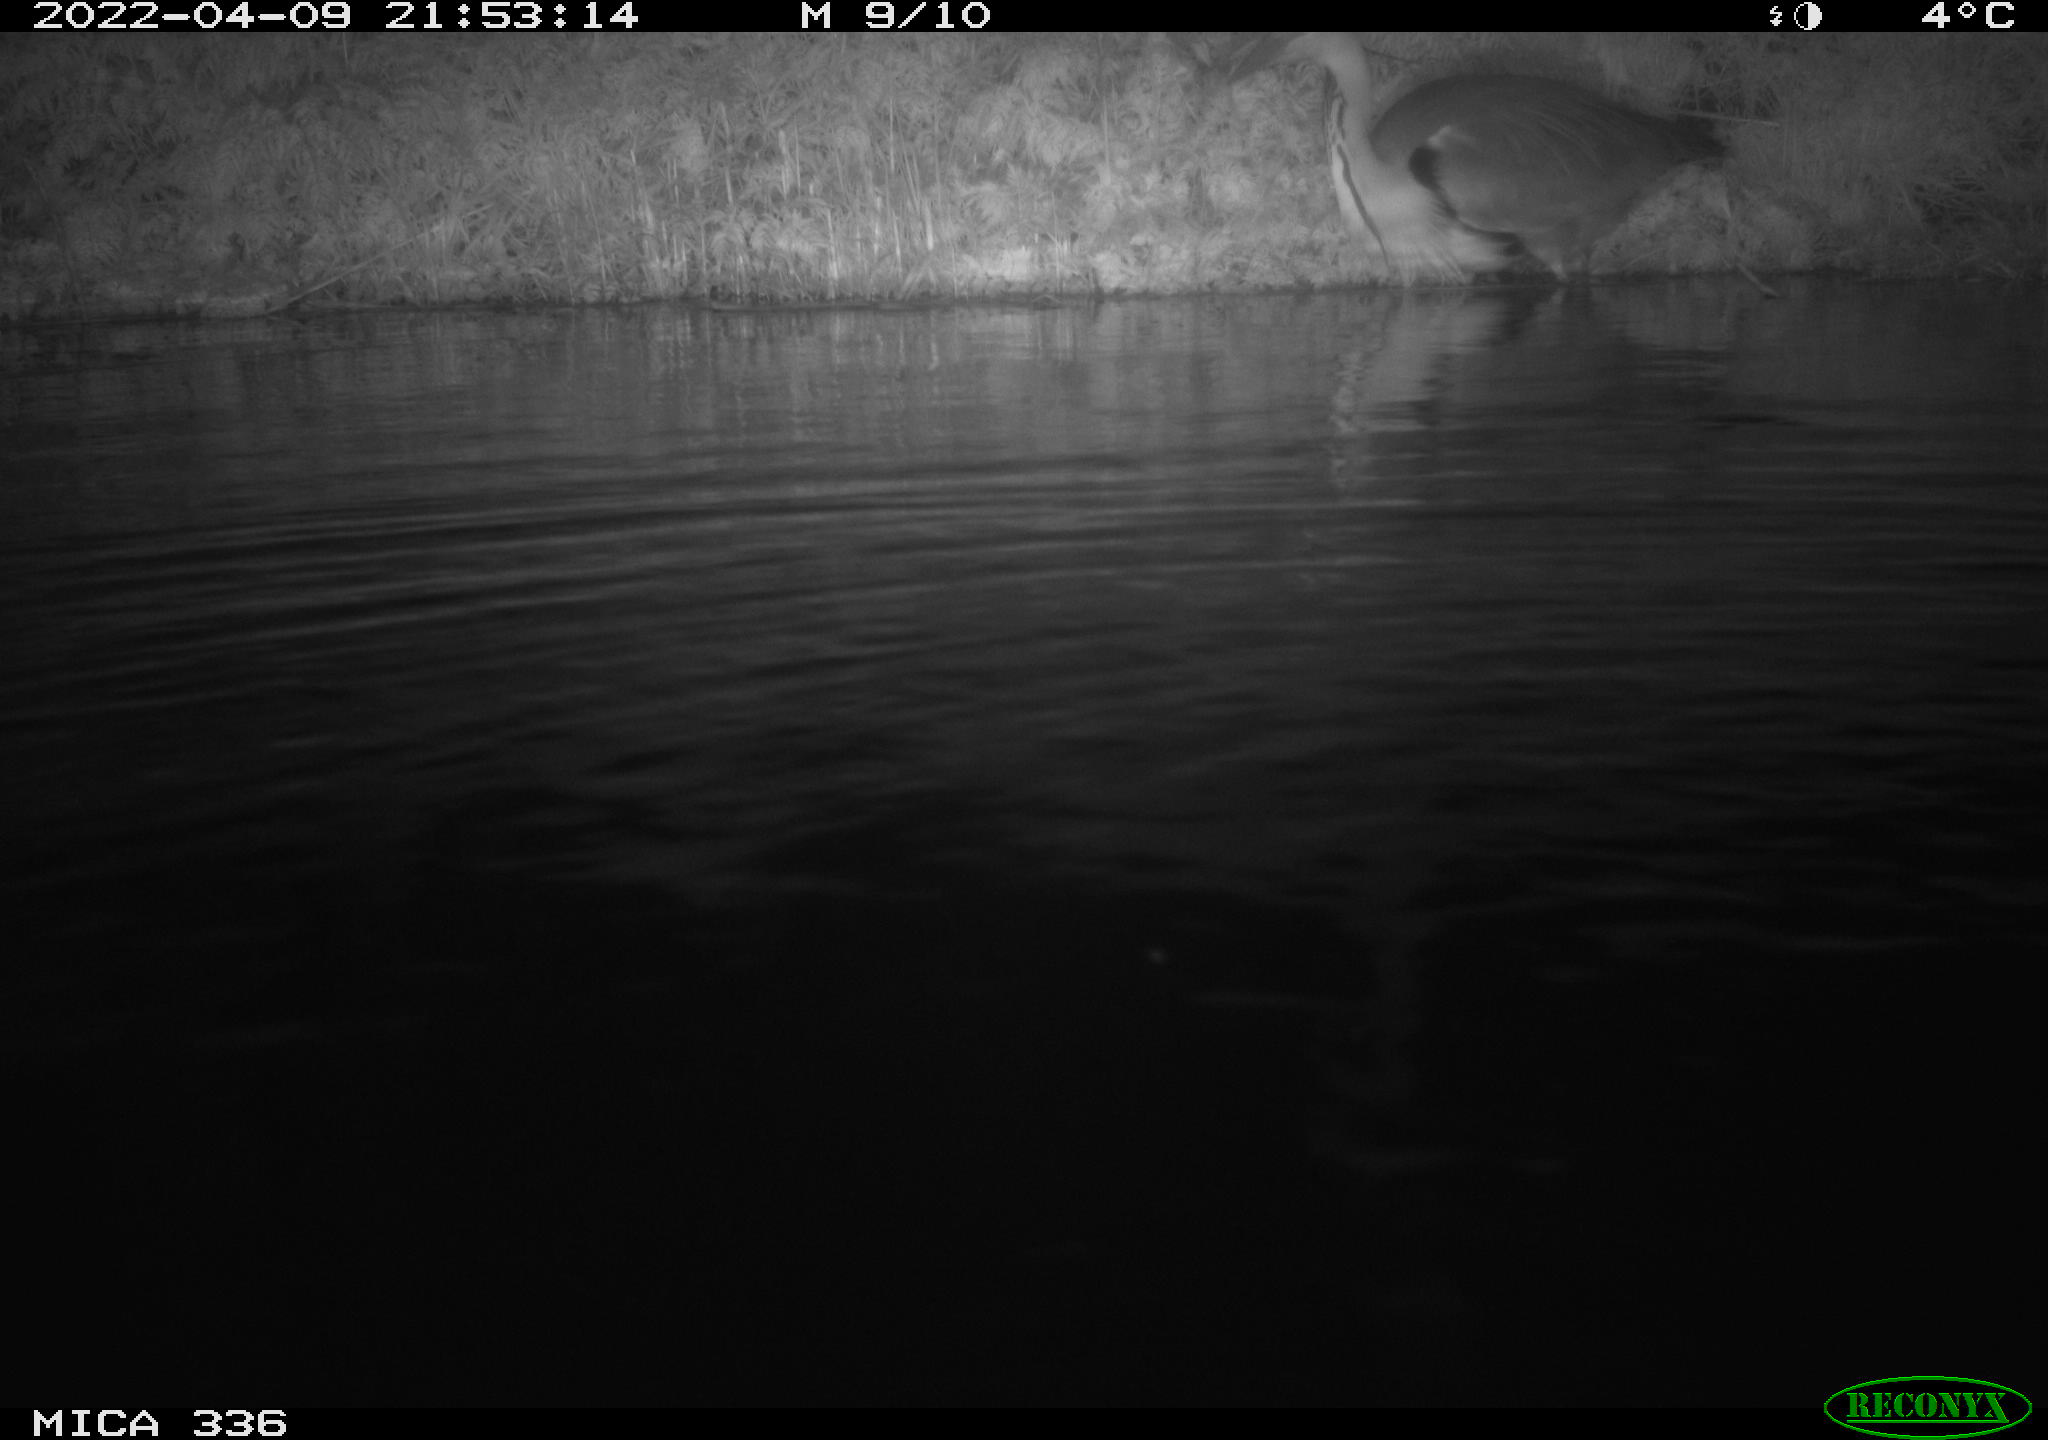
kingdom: Animalia
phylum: Chordata
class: Aves
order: Pelecaniformes
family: Ardeidae
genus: Ardea
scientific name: Ardea cinerea
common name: Grey heron
